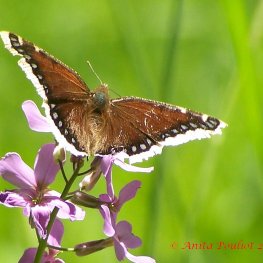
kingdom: Animalia
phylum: Arthropoda
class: Insecta
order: Lepidoptera
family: Nymphalidae
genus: Nymphalis
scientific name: Nymphalis antiopa
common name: Mourning Cloak
